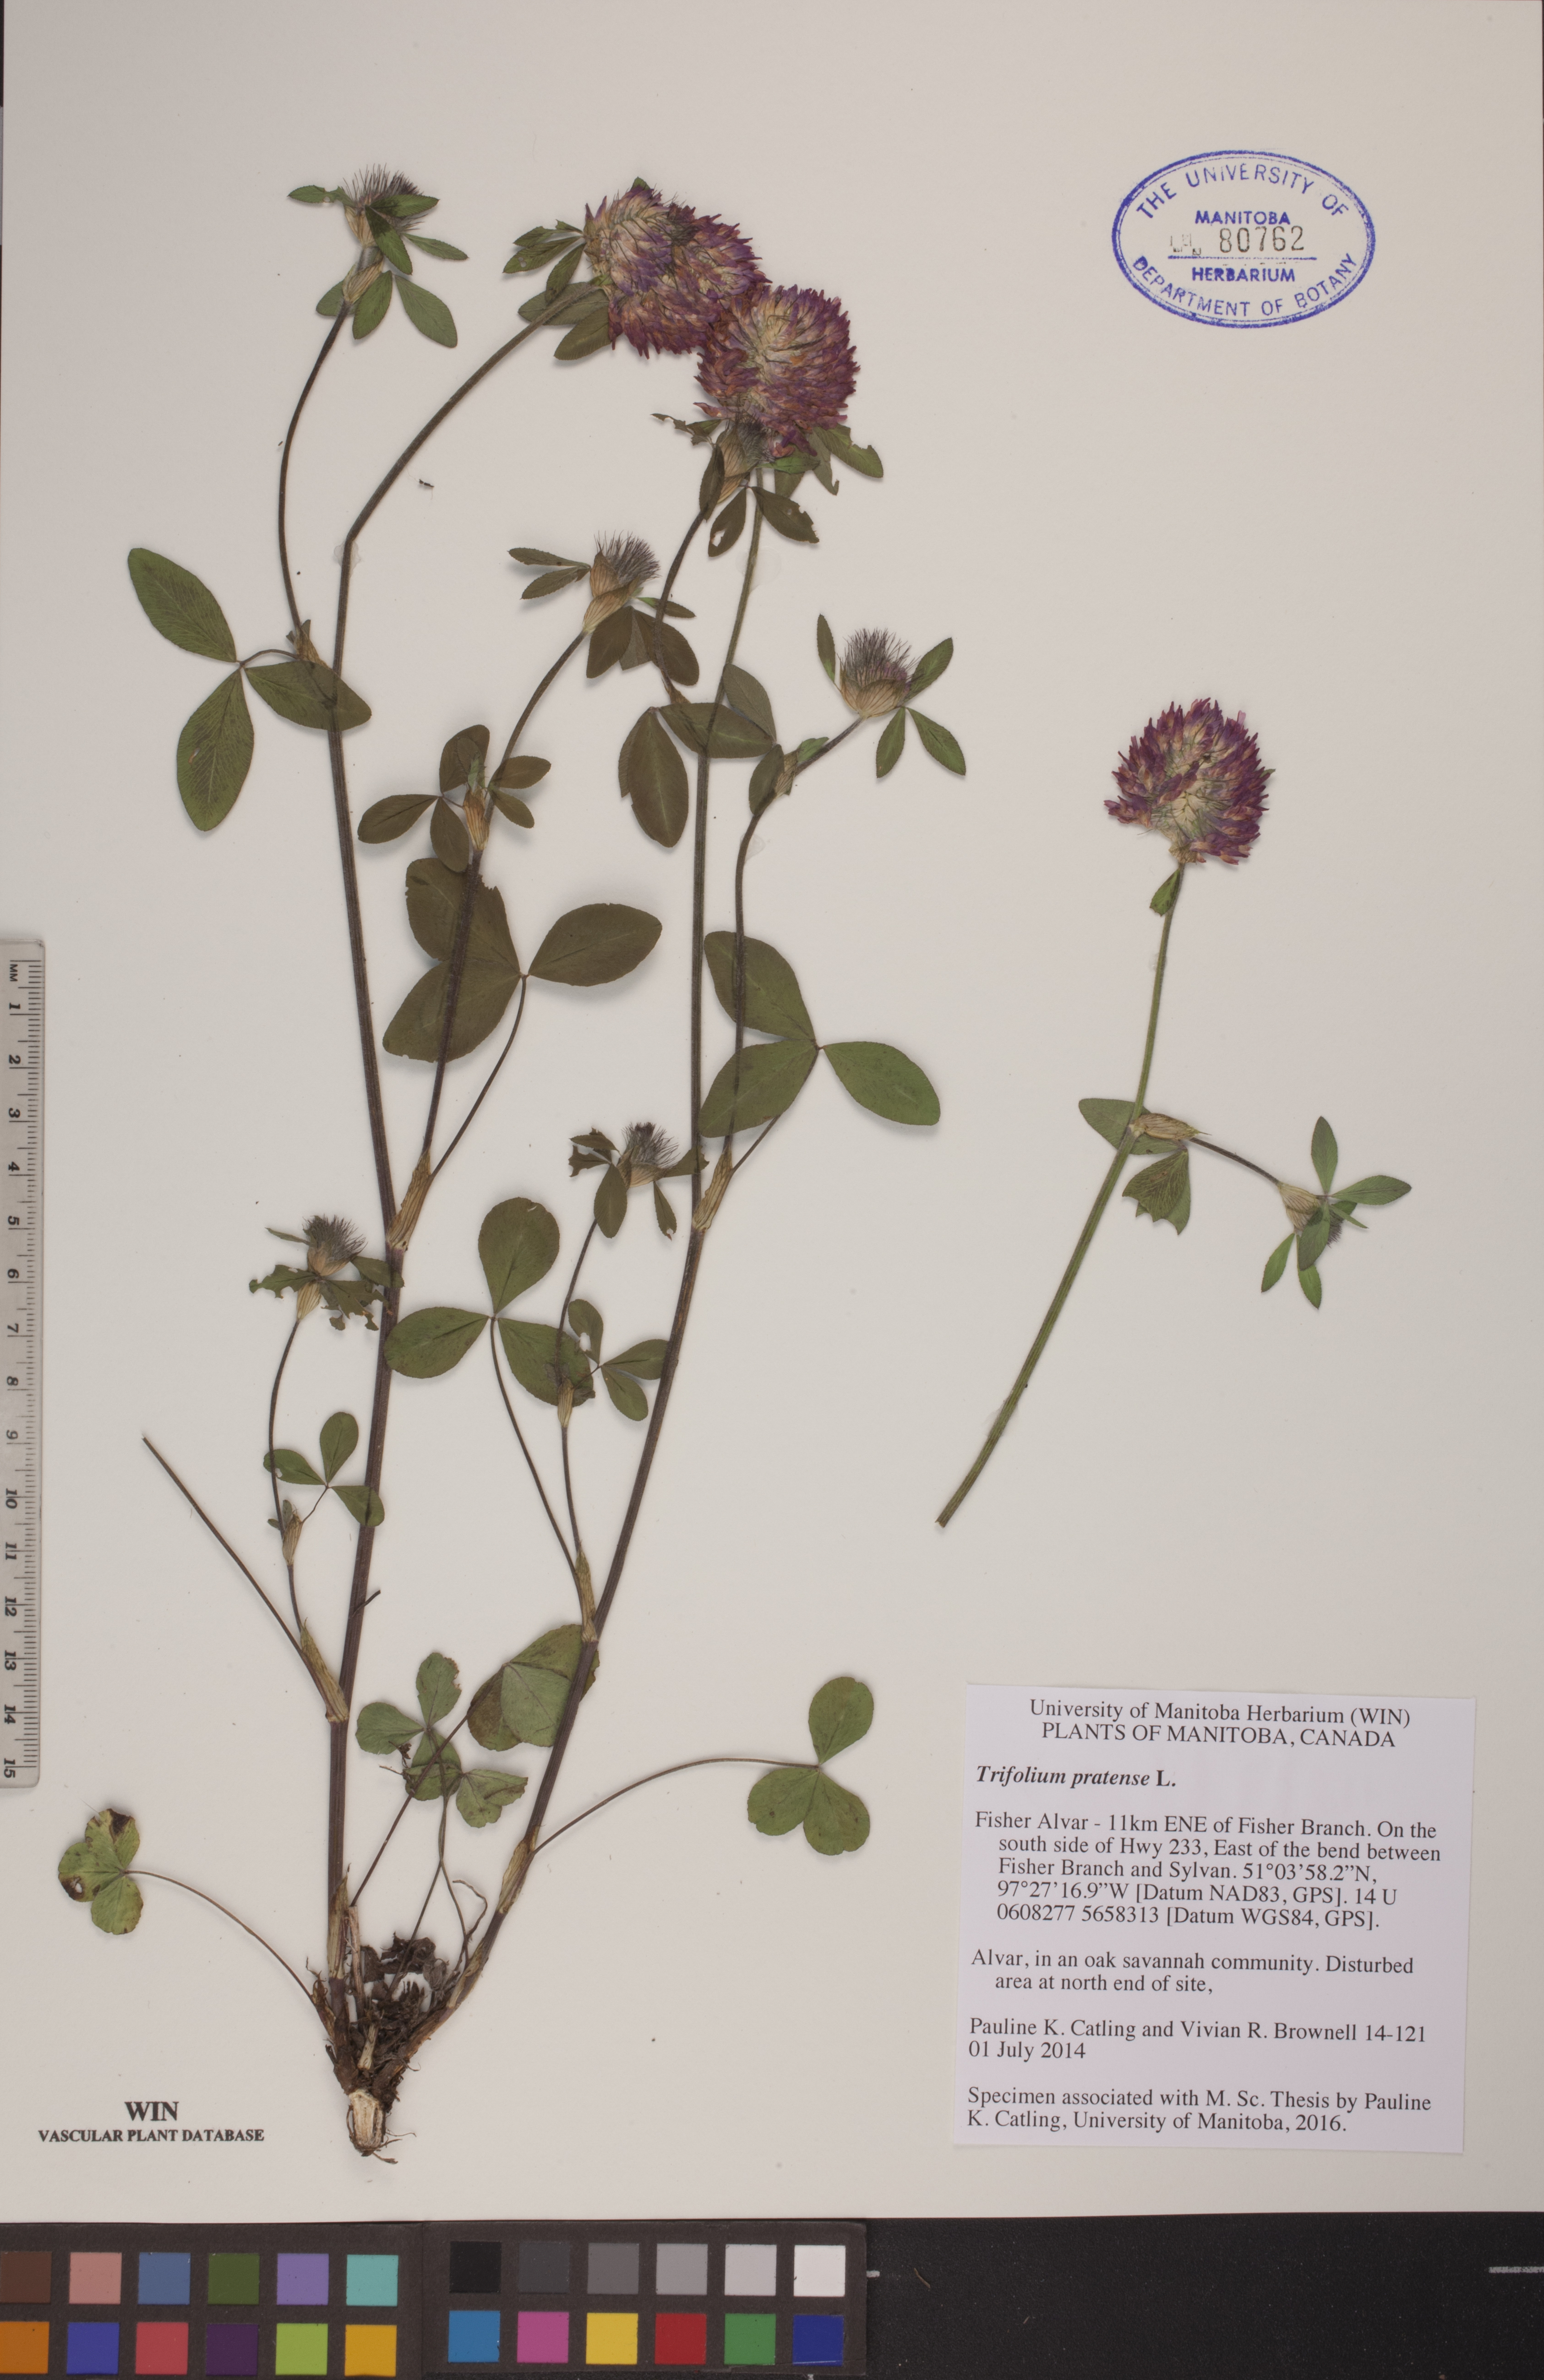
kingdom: Plantae
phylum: Tracheophyta
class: Magnoliopsida
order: Fabales
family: Fabaceae
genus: Trifolium
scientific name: Trifolium pratense
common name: Red clover
